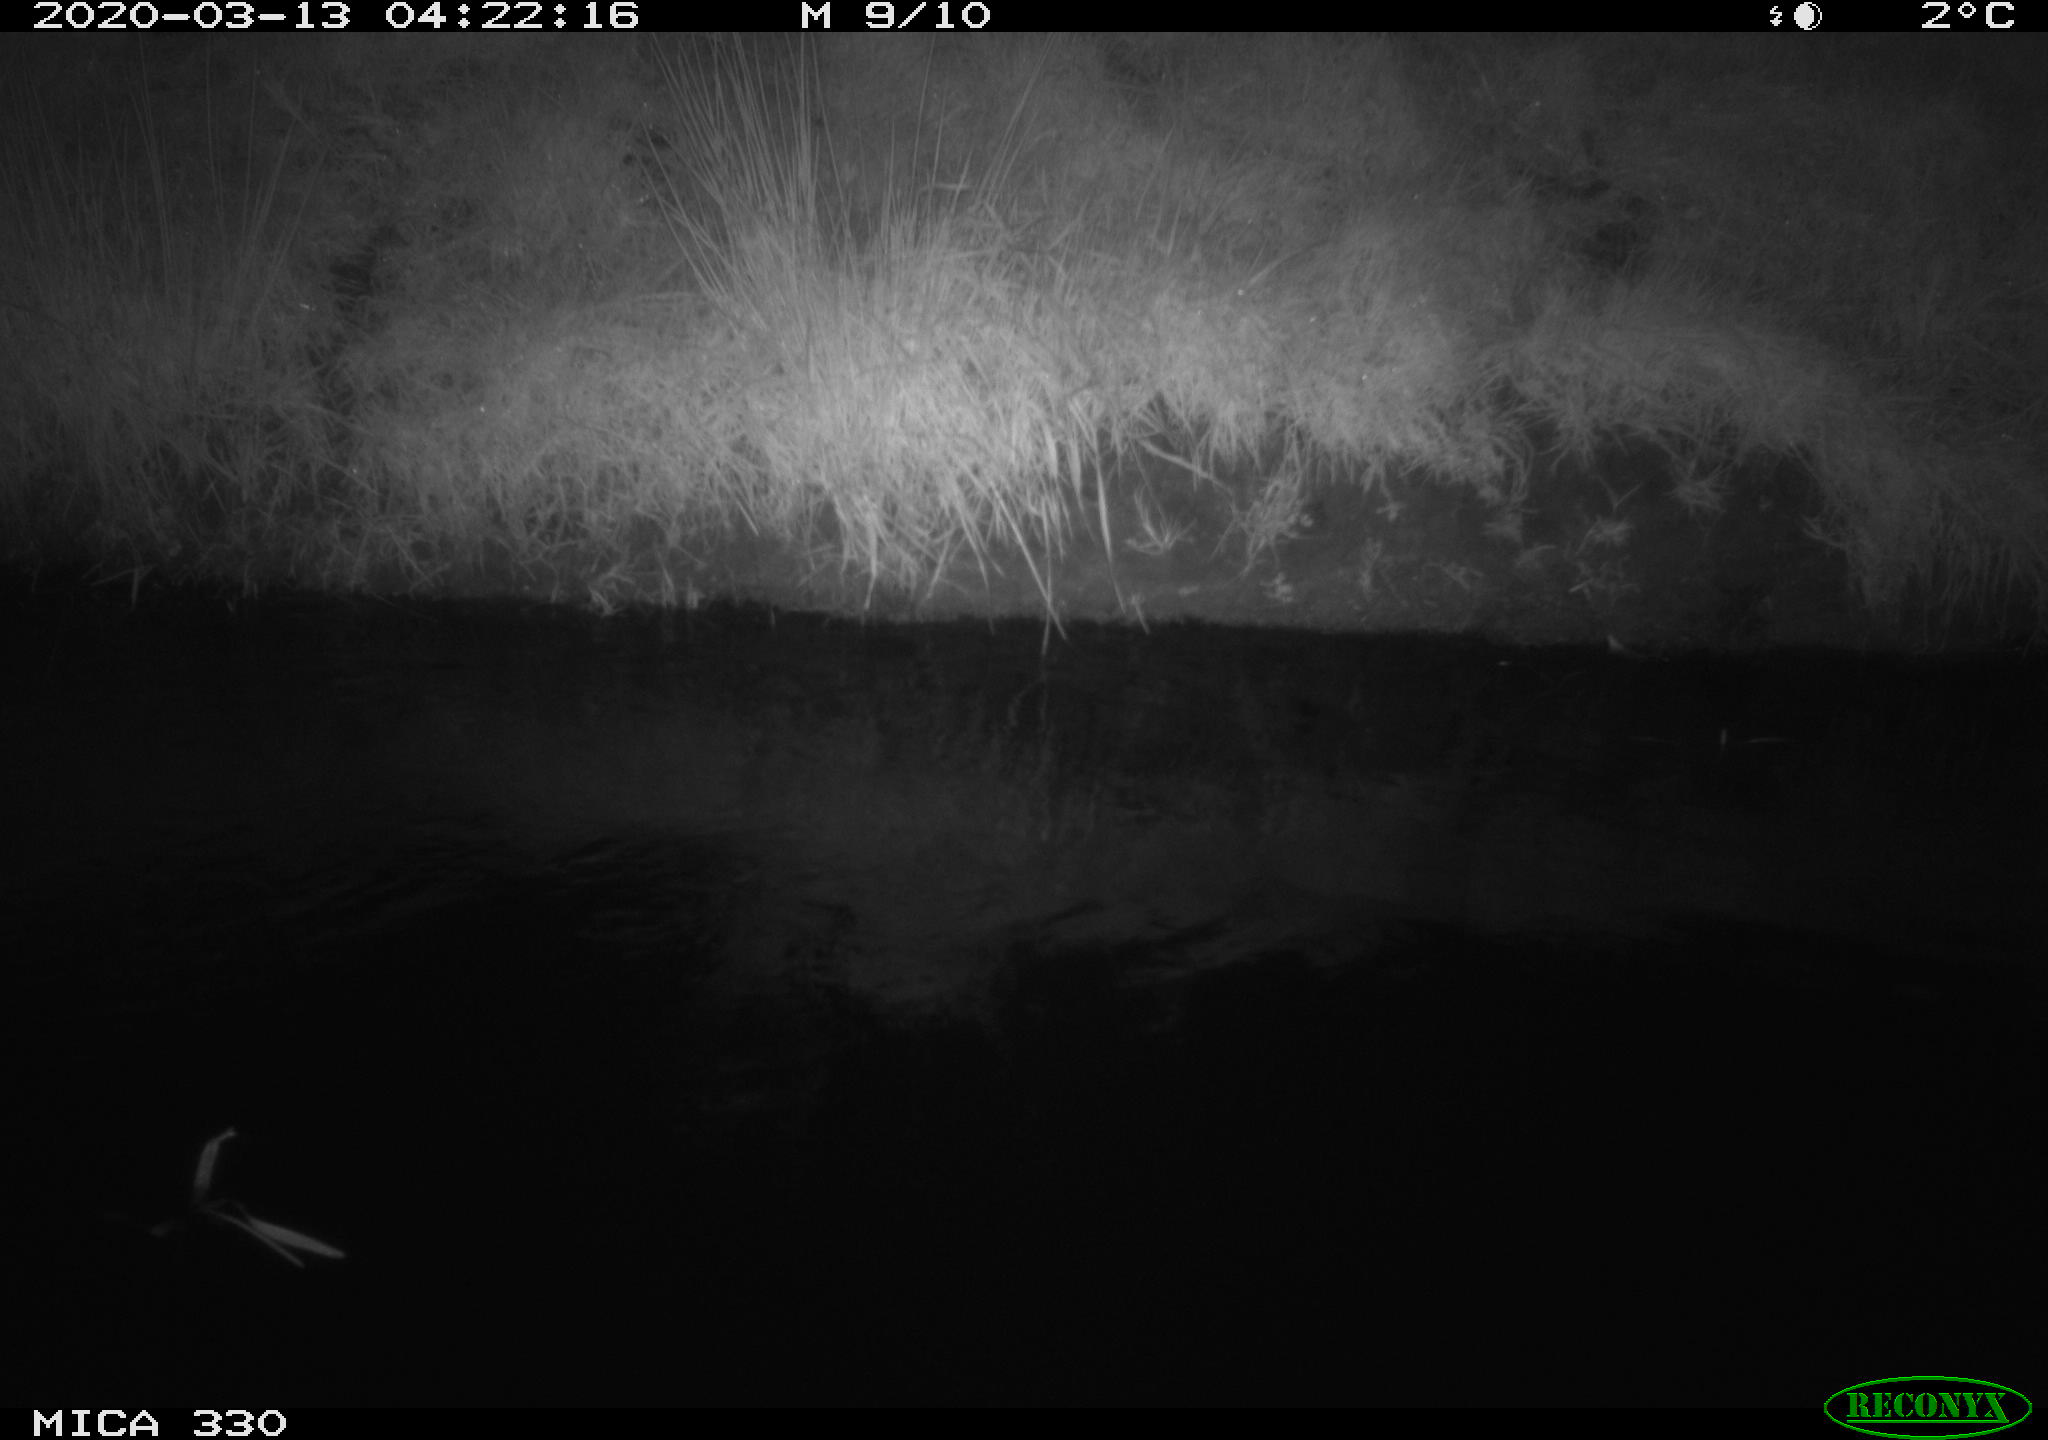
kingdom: Animalia
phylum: Chordata
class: Aves
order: Anseriformes
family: Anatidae
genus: Anas
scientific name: Anas platyrhynchos
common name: Mallard
